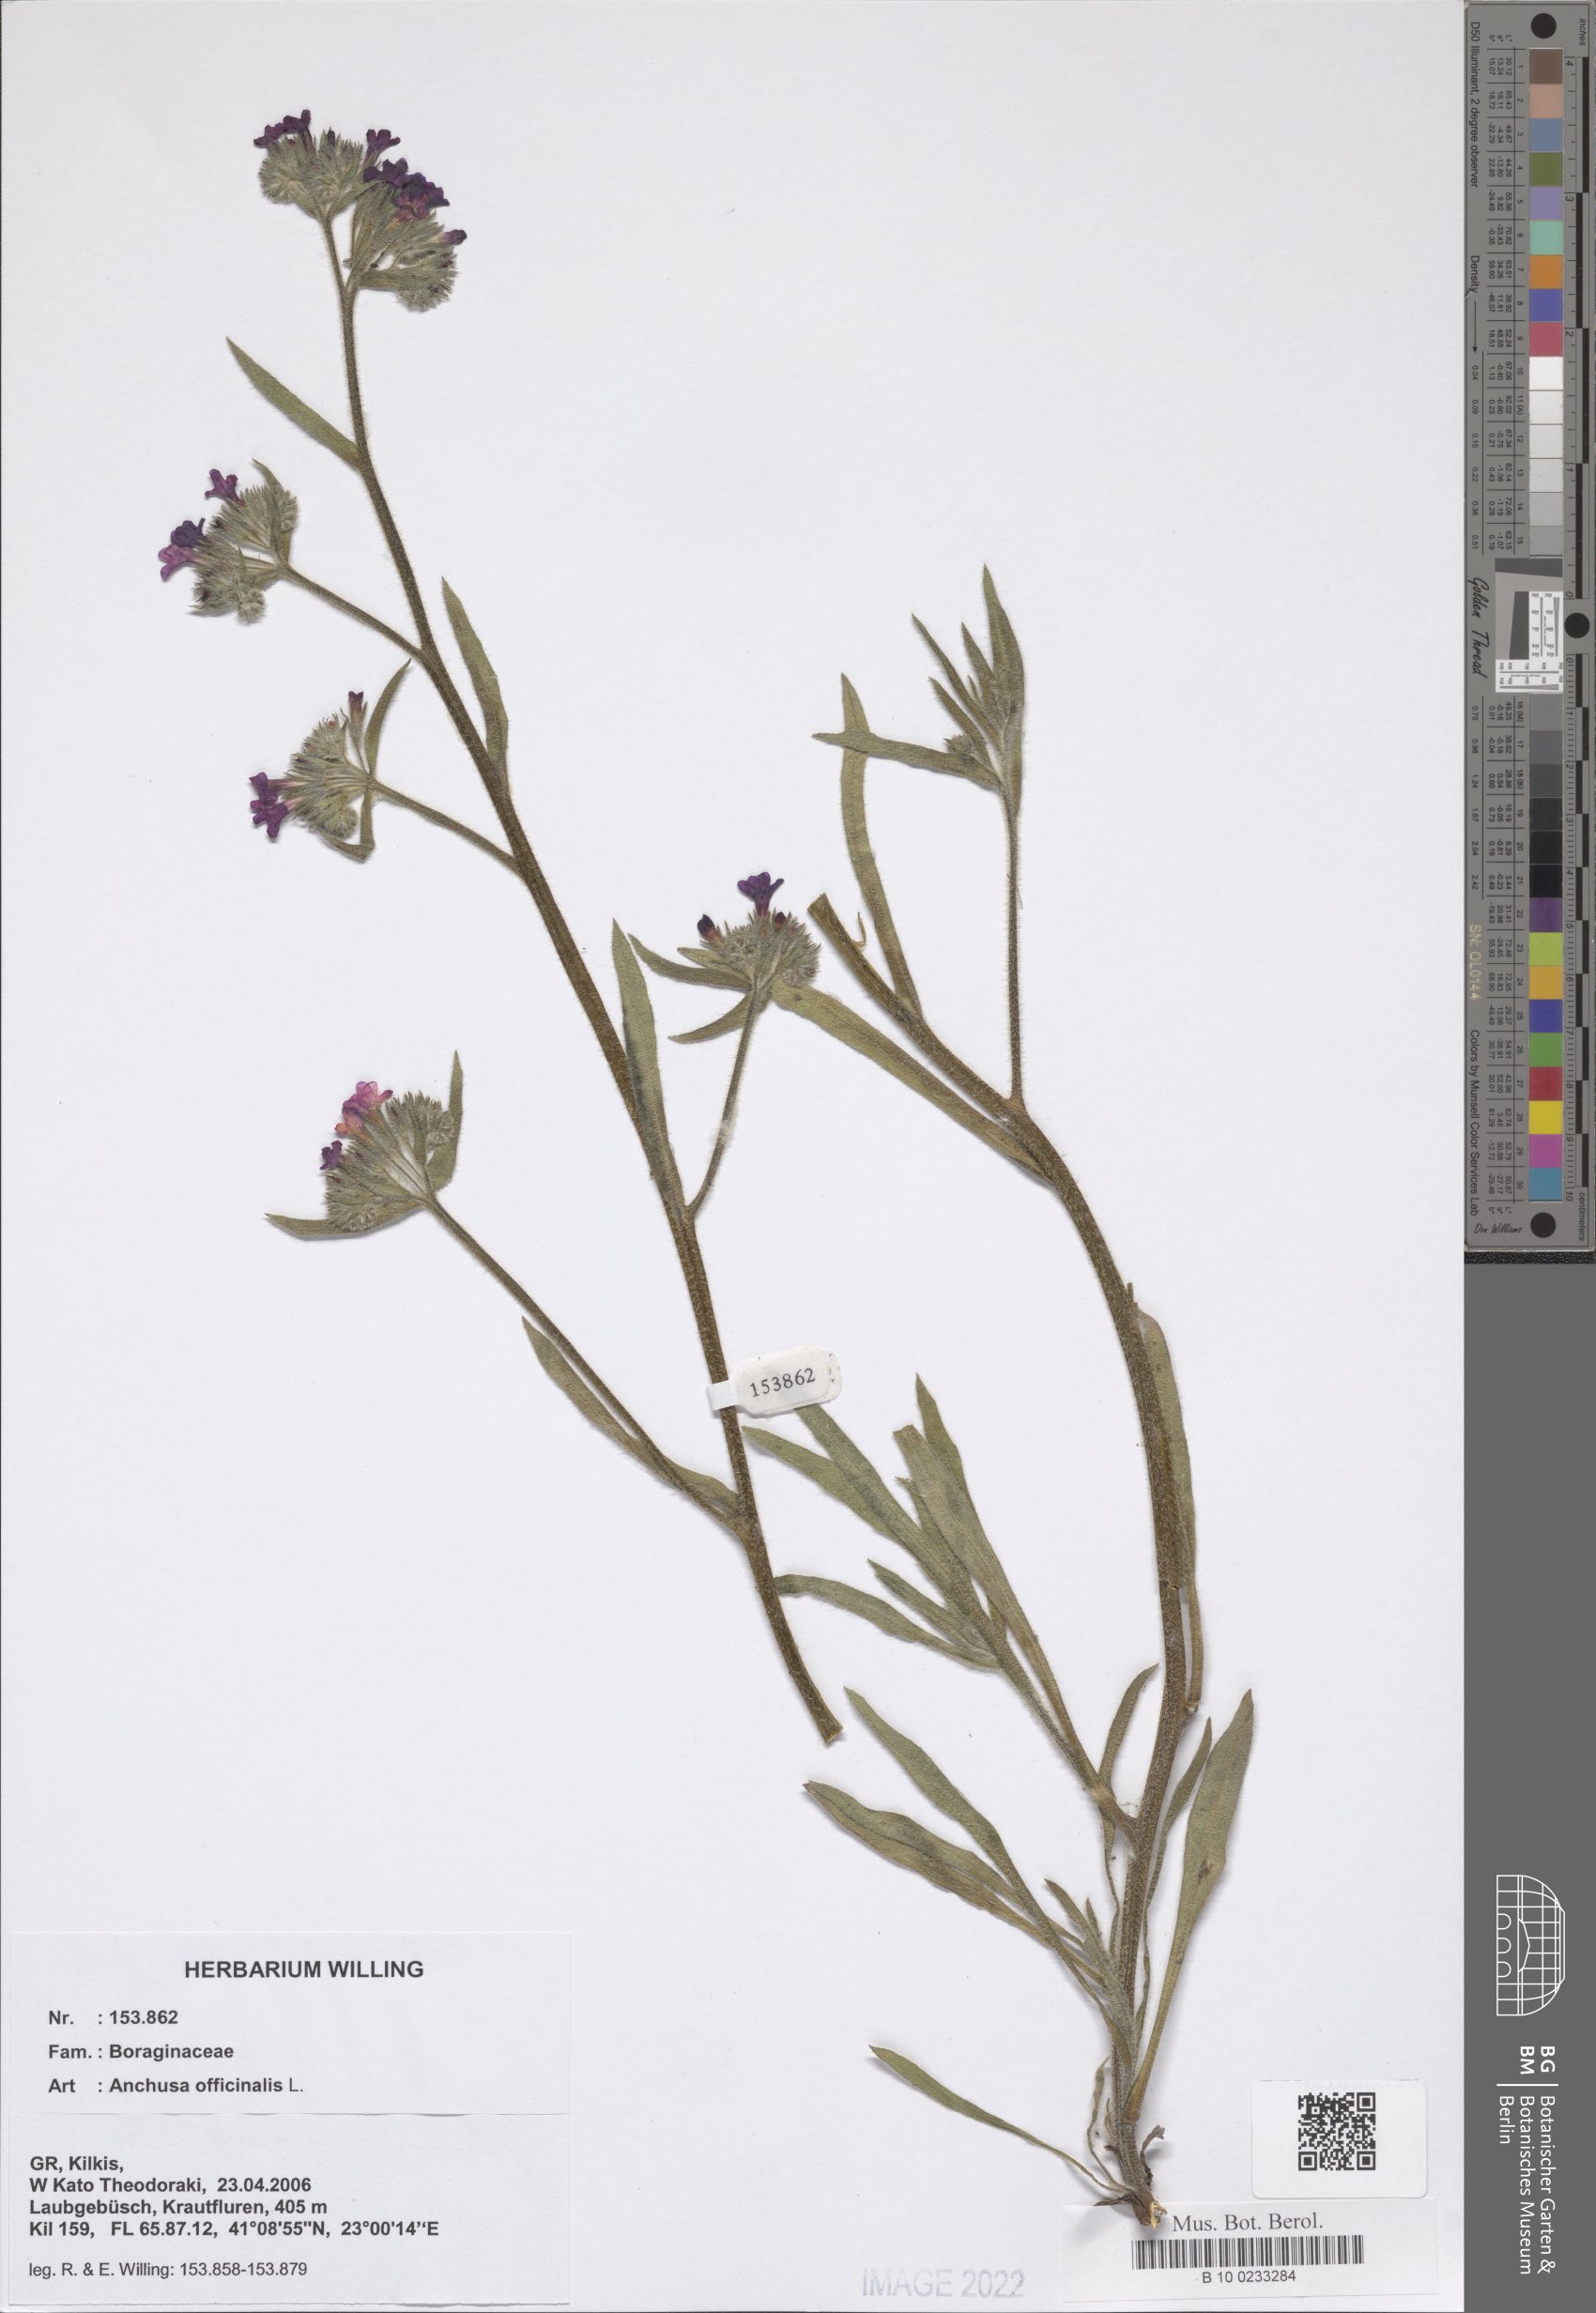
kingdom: Plantae
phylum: Tracheophyta
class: Magnoliopsida
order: Boraginales
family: Boraginaceae
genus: Anchusa
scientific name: Anchusa officinalis
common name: Alkanet
